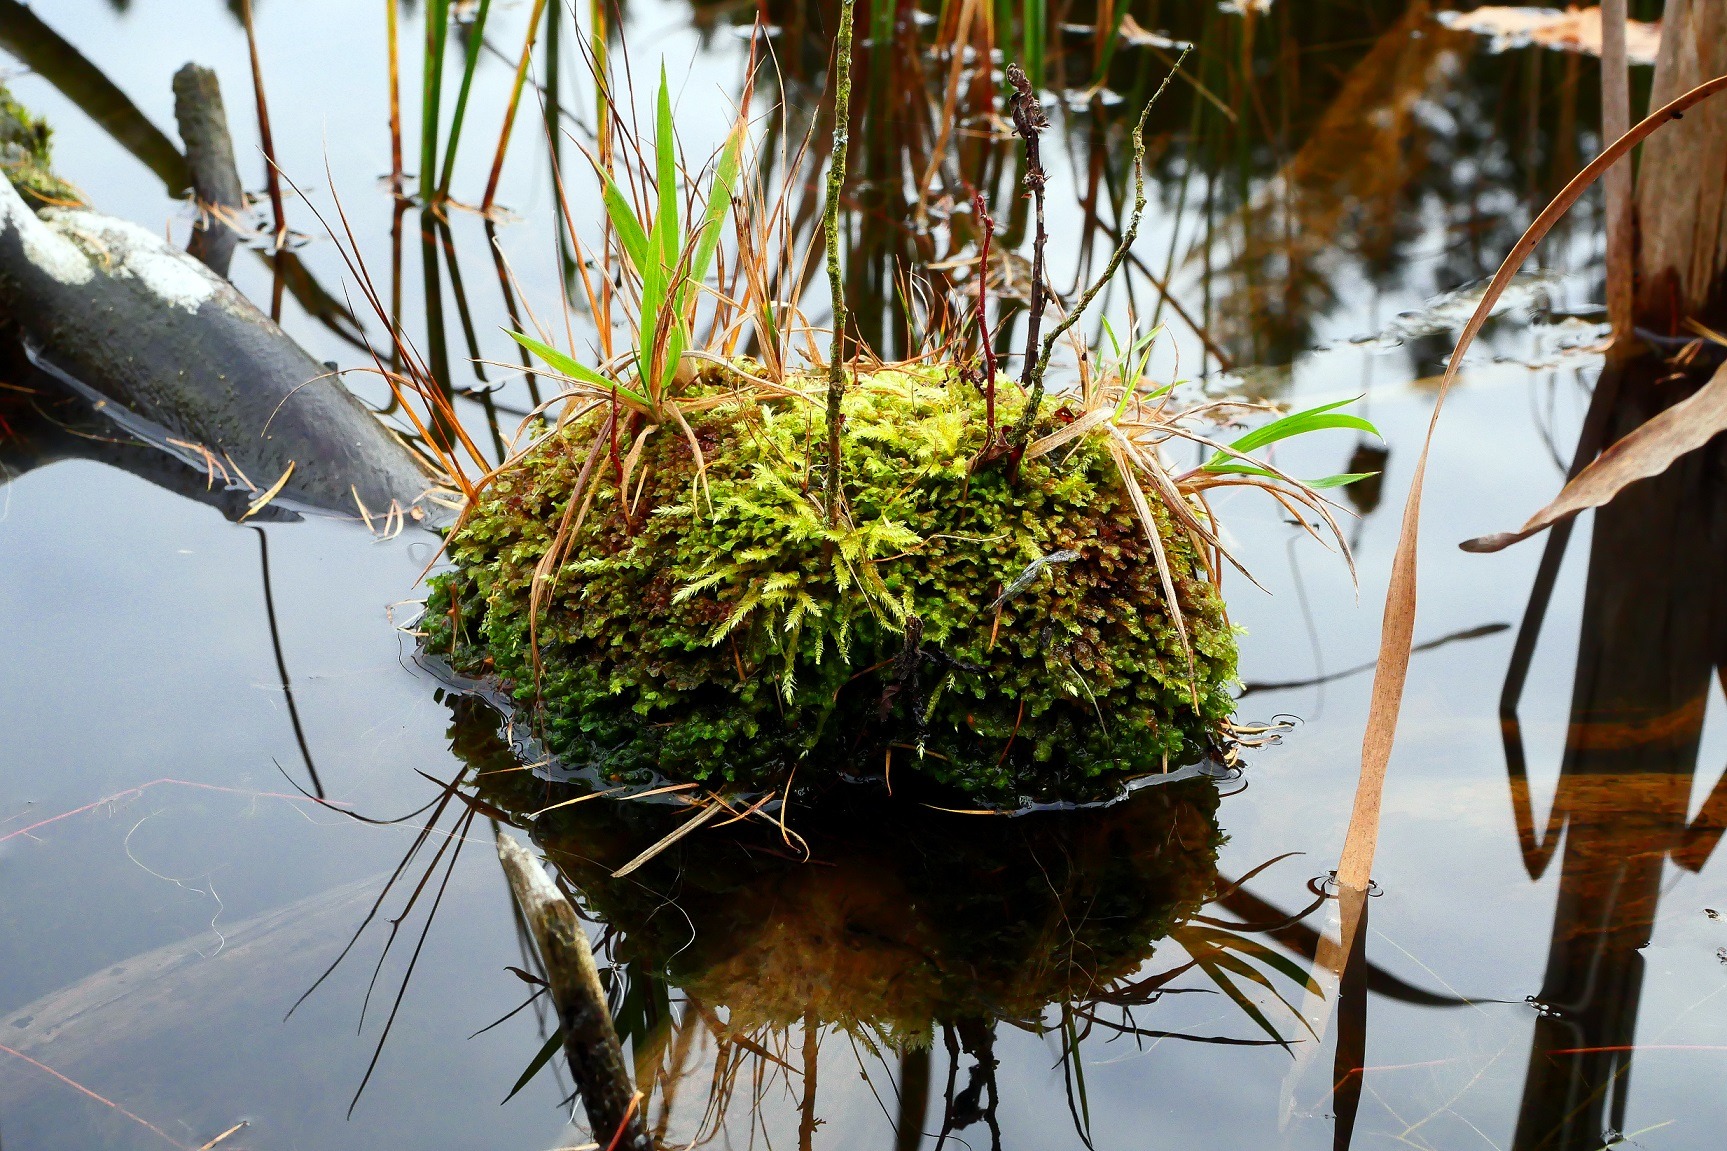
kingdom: Plantae
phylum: Marchantiophyta
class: Jungermanniopsida
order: Jungermanniales
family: Scapaniaceae
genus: Scapania
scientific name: Scapania undulata
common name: Bæk-tveblad
